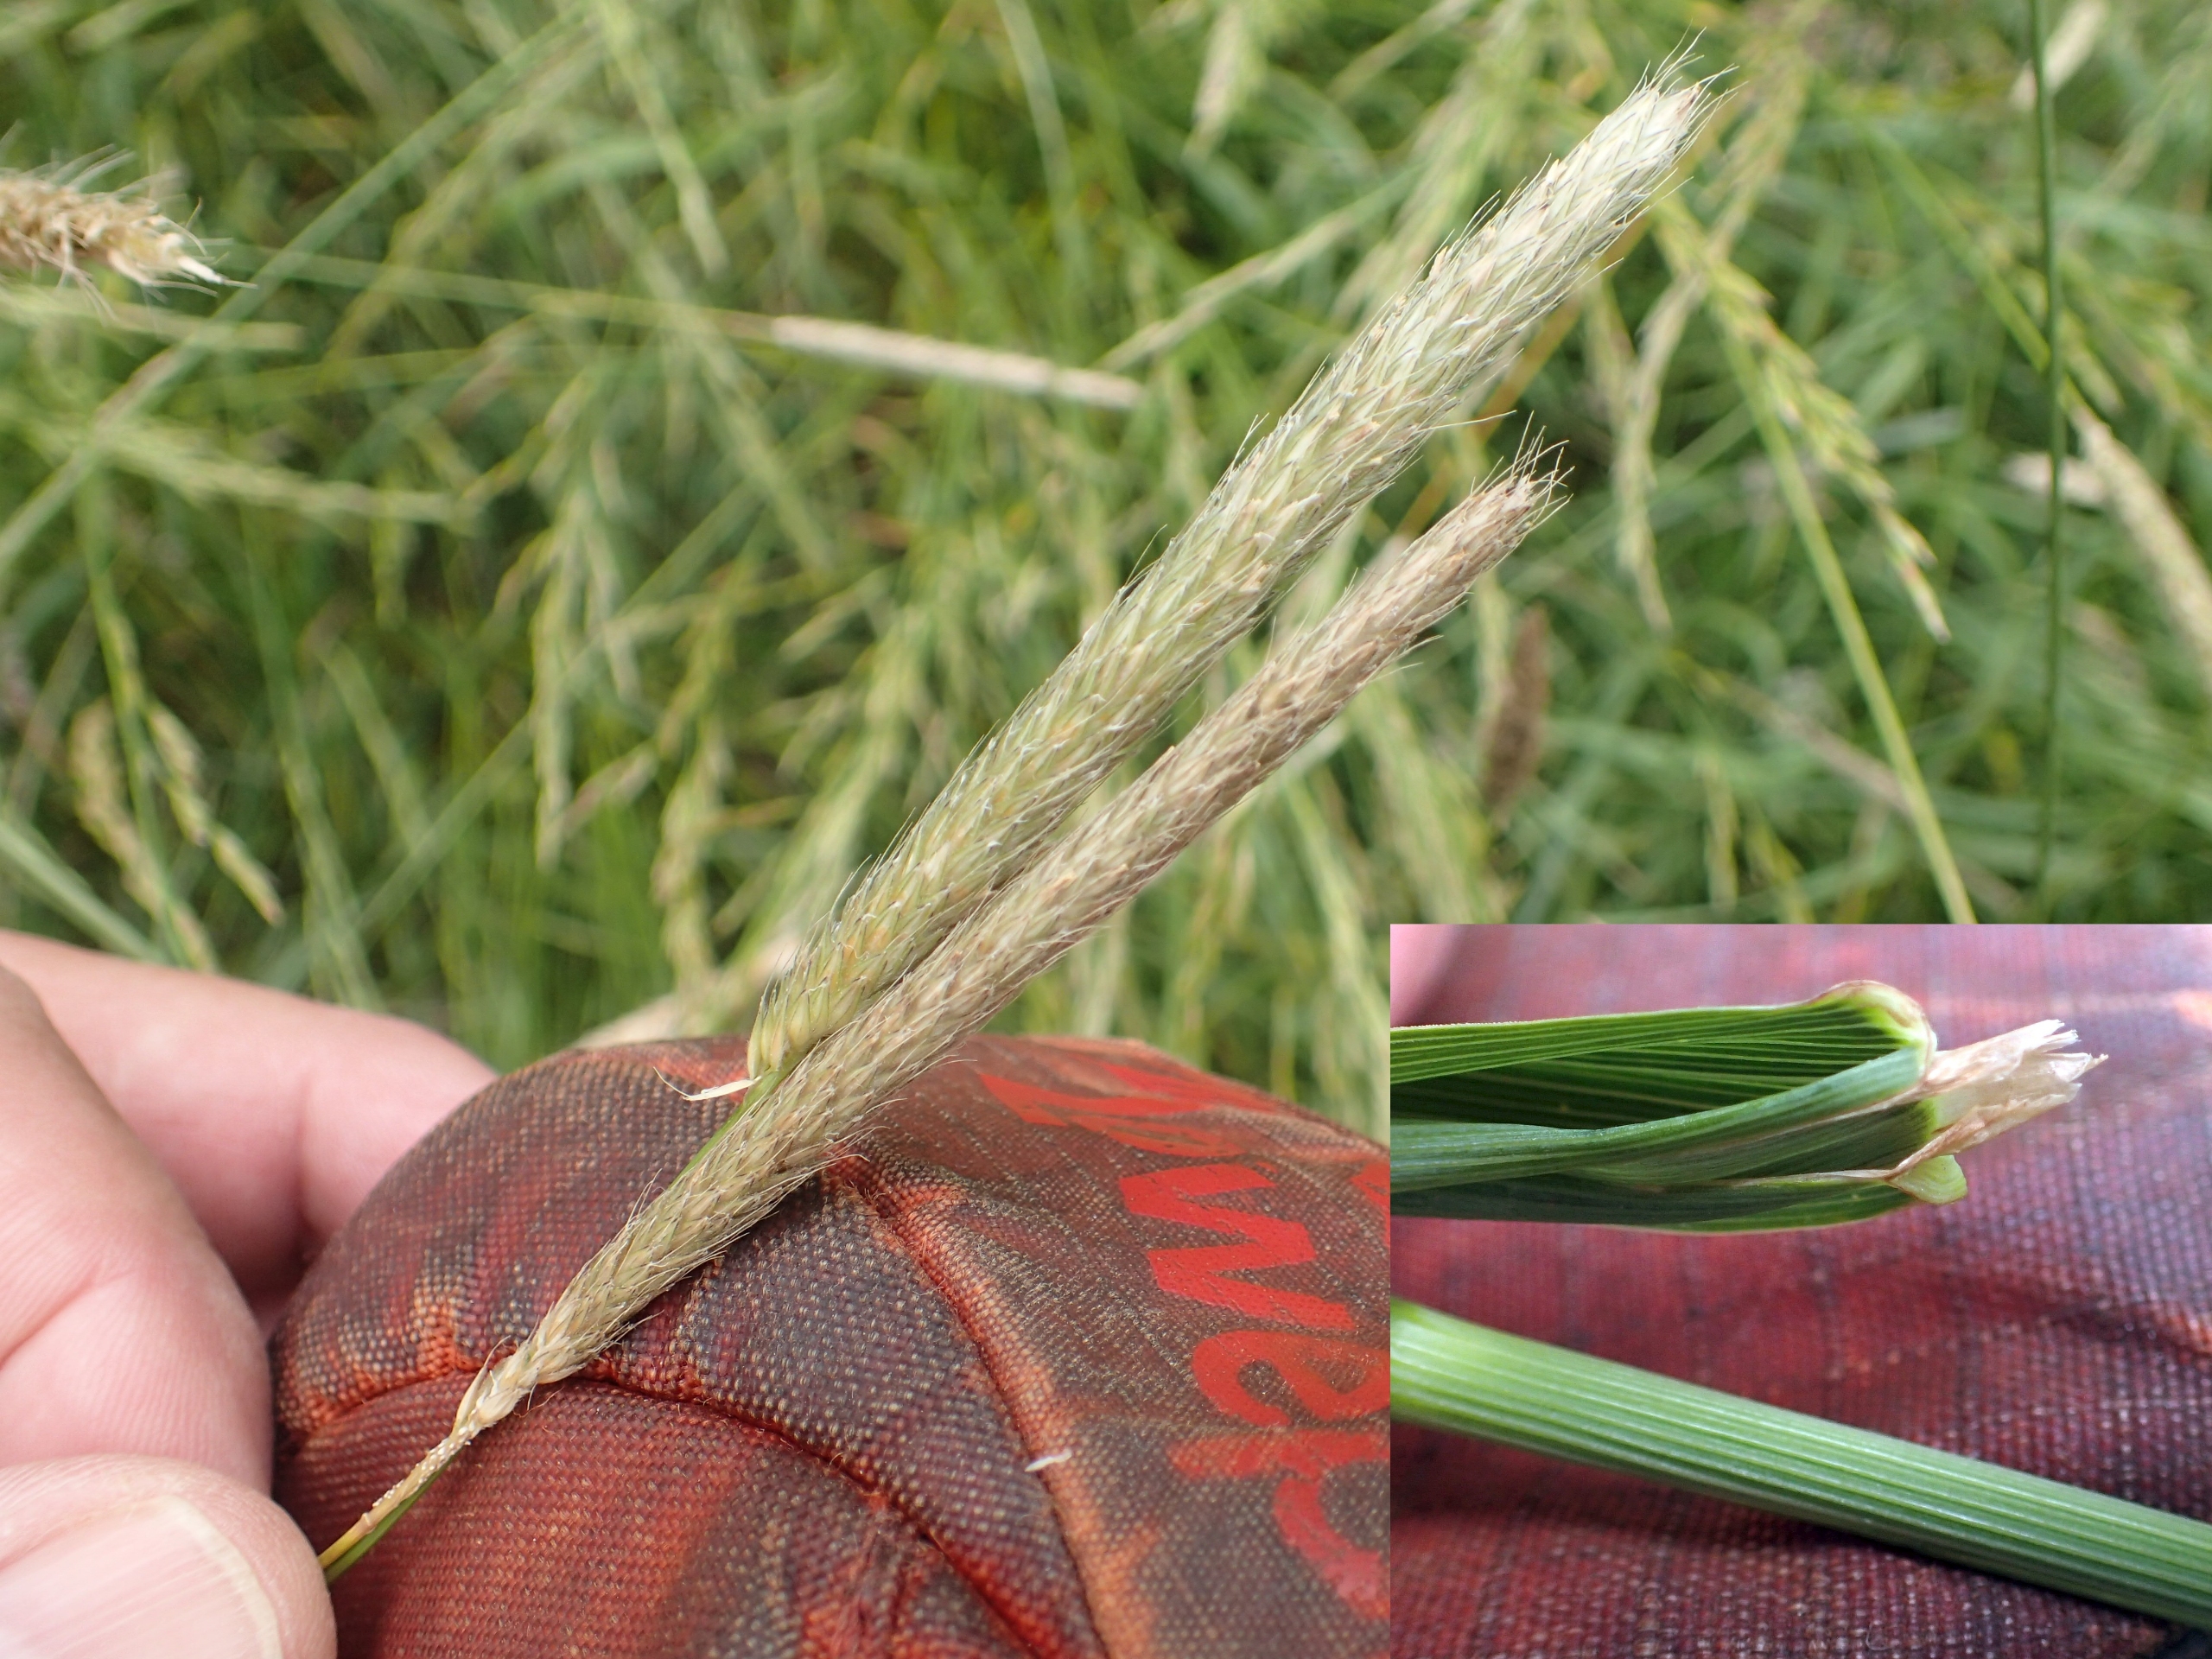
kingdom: Plantae
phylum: Tracheophyta
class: Liliopsida
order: Poales
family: Poaceae
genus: Alopecurus
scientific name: Alopecurus pratensis
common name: Eng-rævehale
